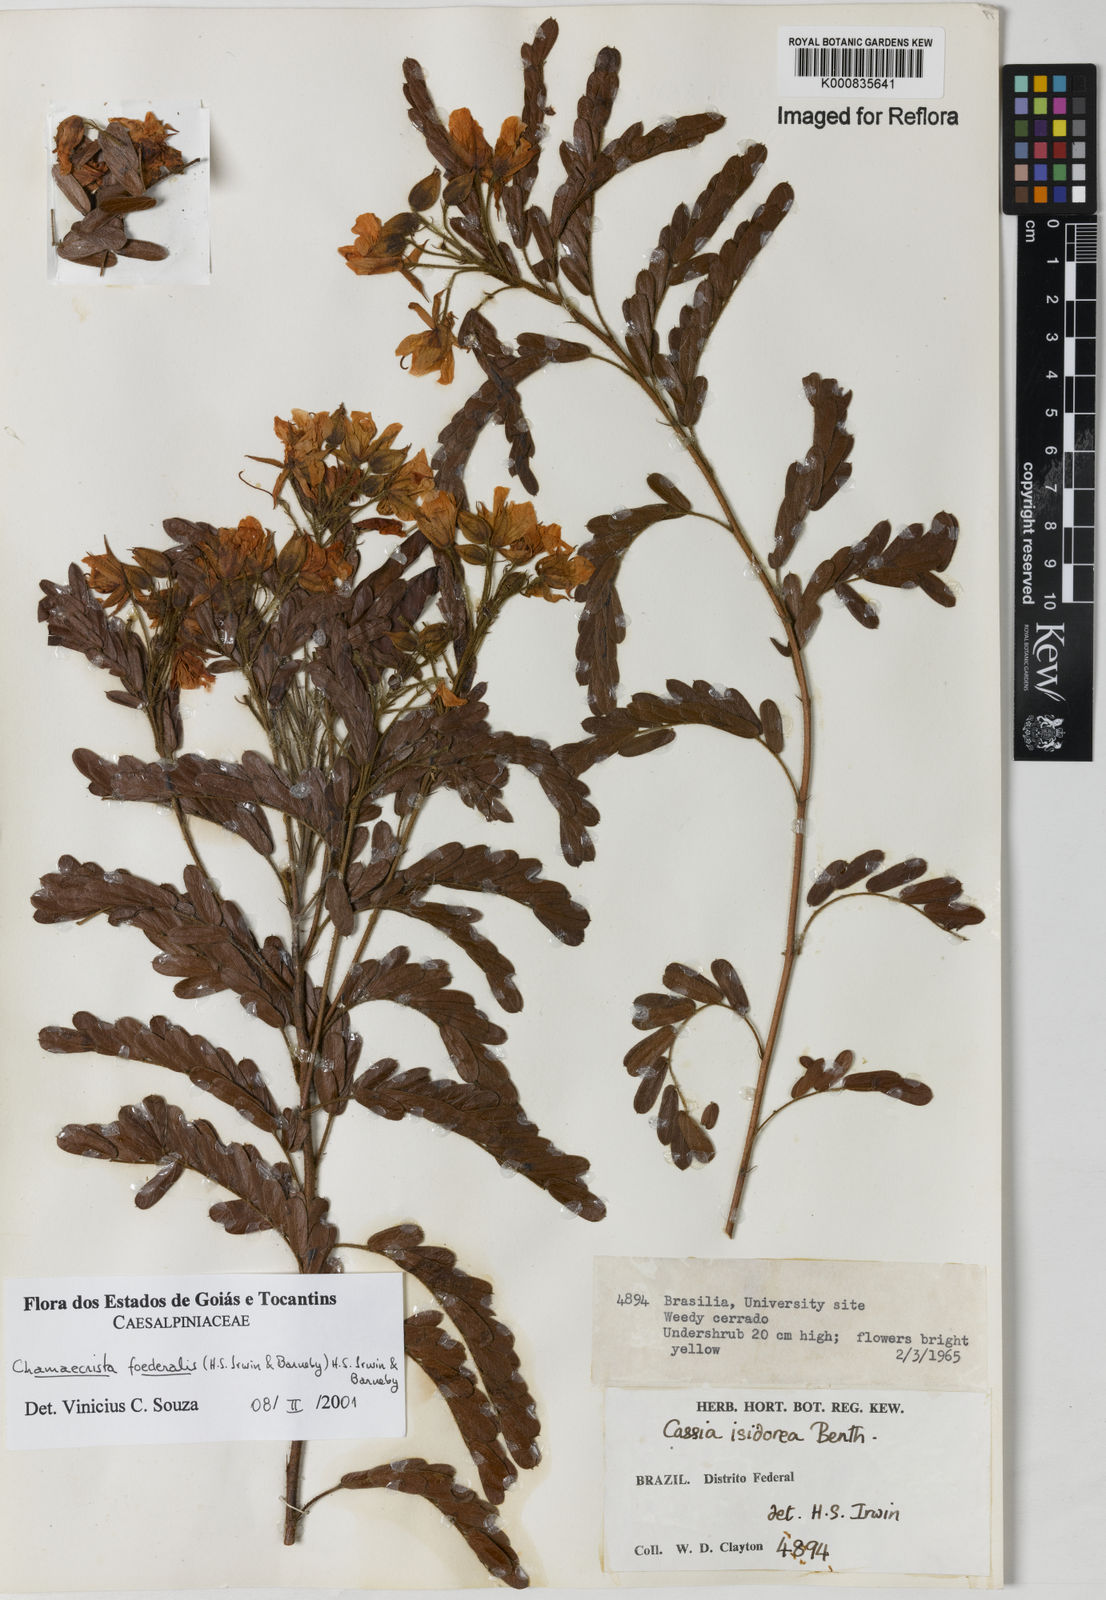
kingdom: Plantae
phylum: Tracheophyta
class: Magnoliopsida
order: Fabales
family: Fabaceae
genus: Chamaecrista
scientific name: Chamaecrista foederalis
